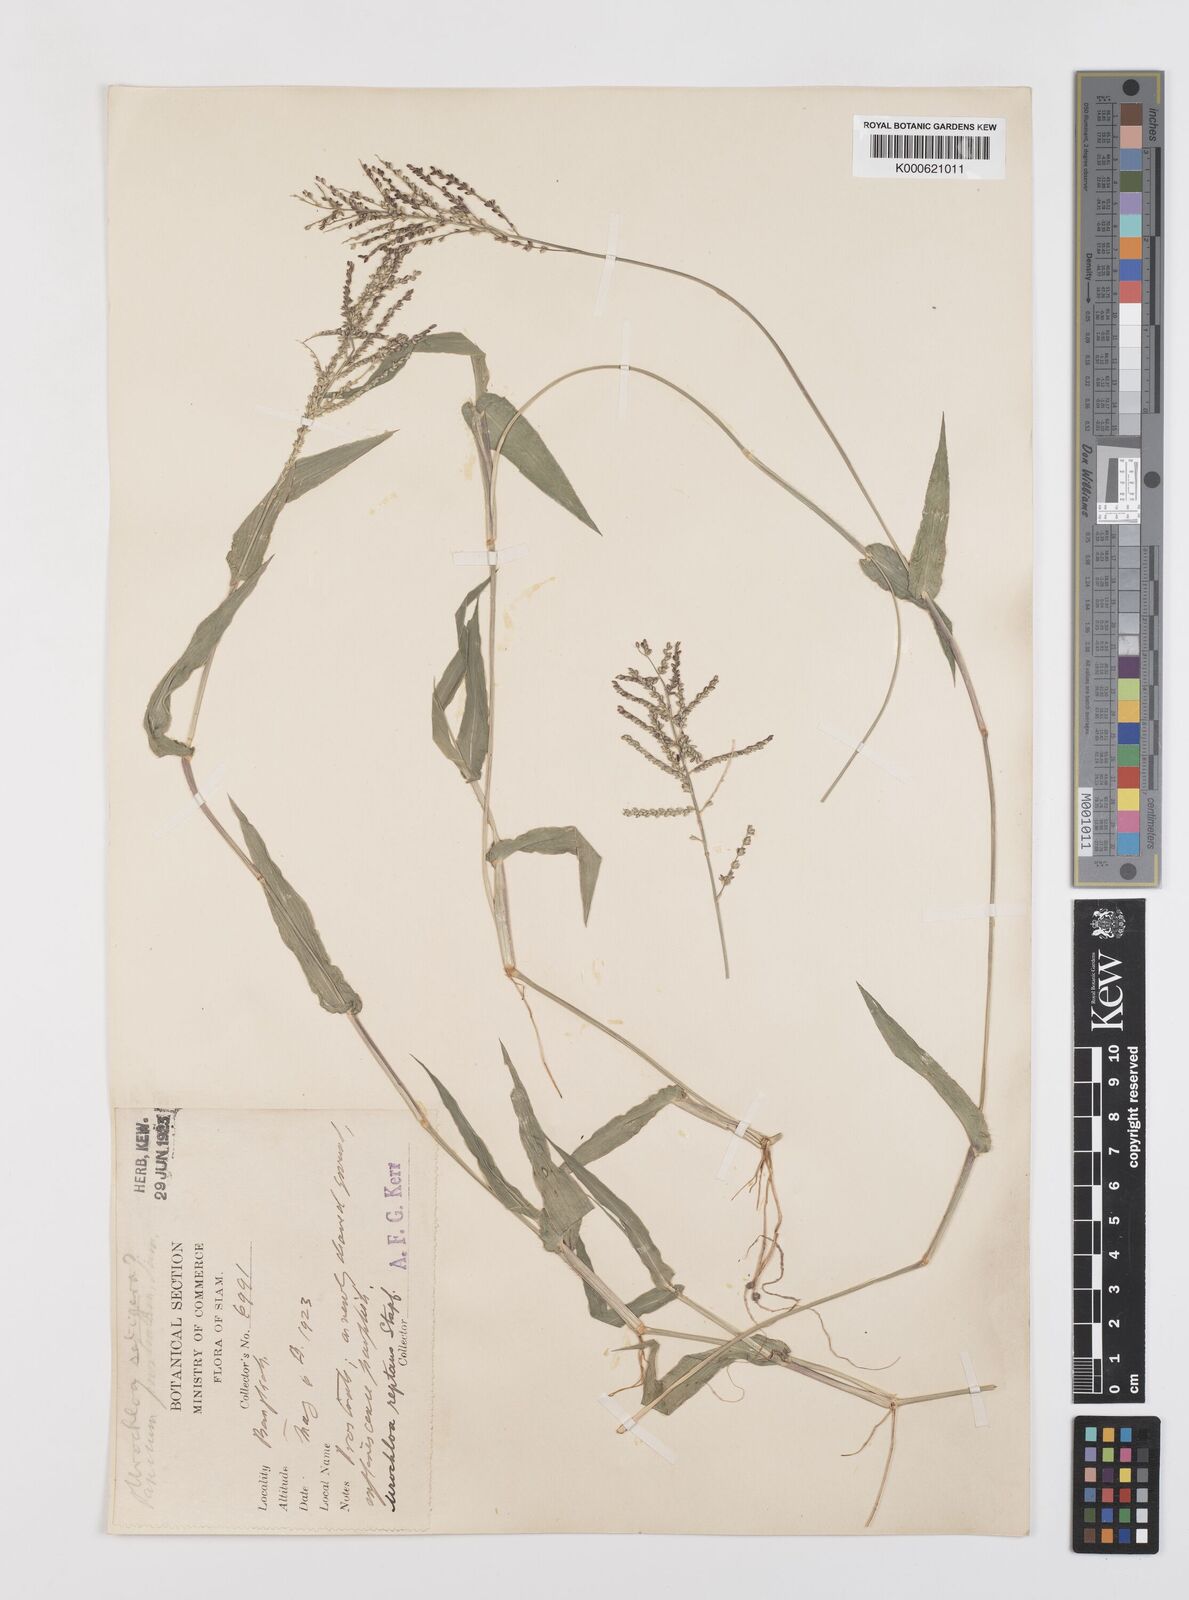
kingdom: Plantae
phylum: Tracheophyta
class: Liliopsida
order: Poales
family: Poaceae
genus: Urochloa
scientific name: Urochloa reptans
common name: Sprawling signalgrass
